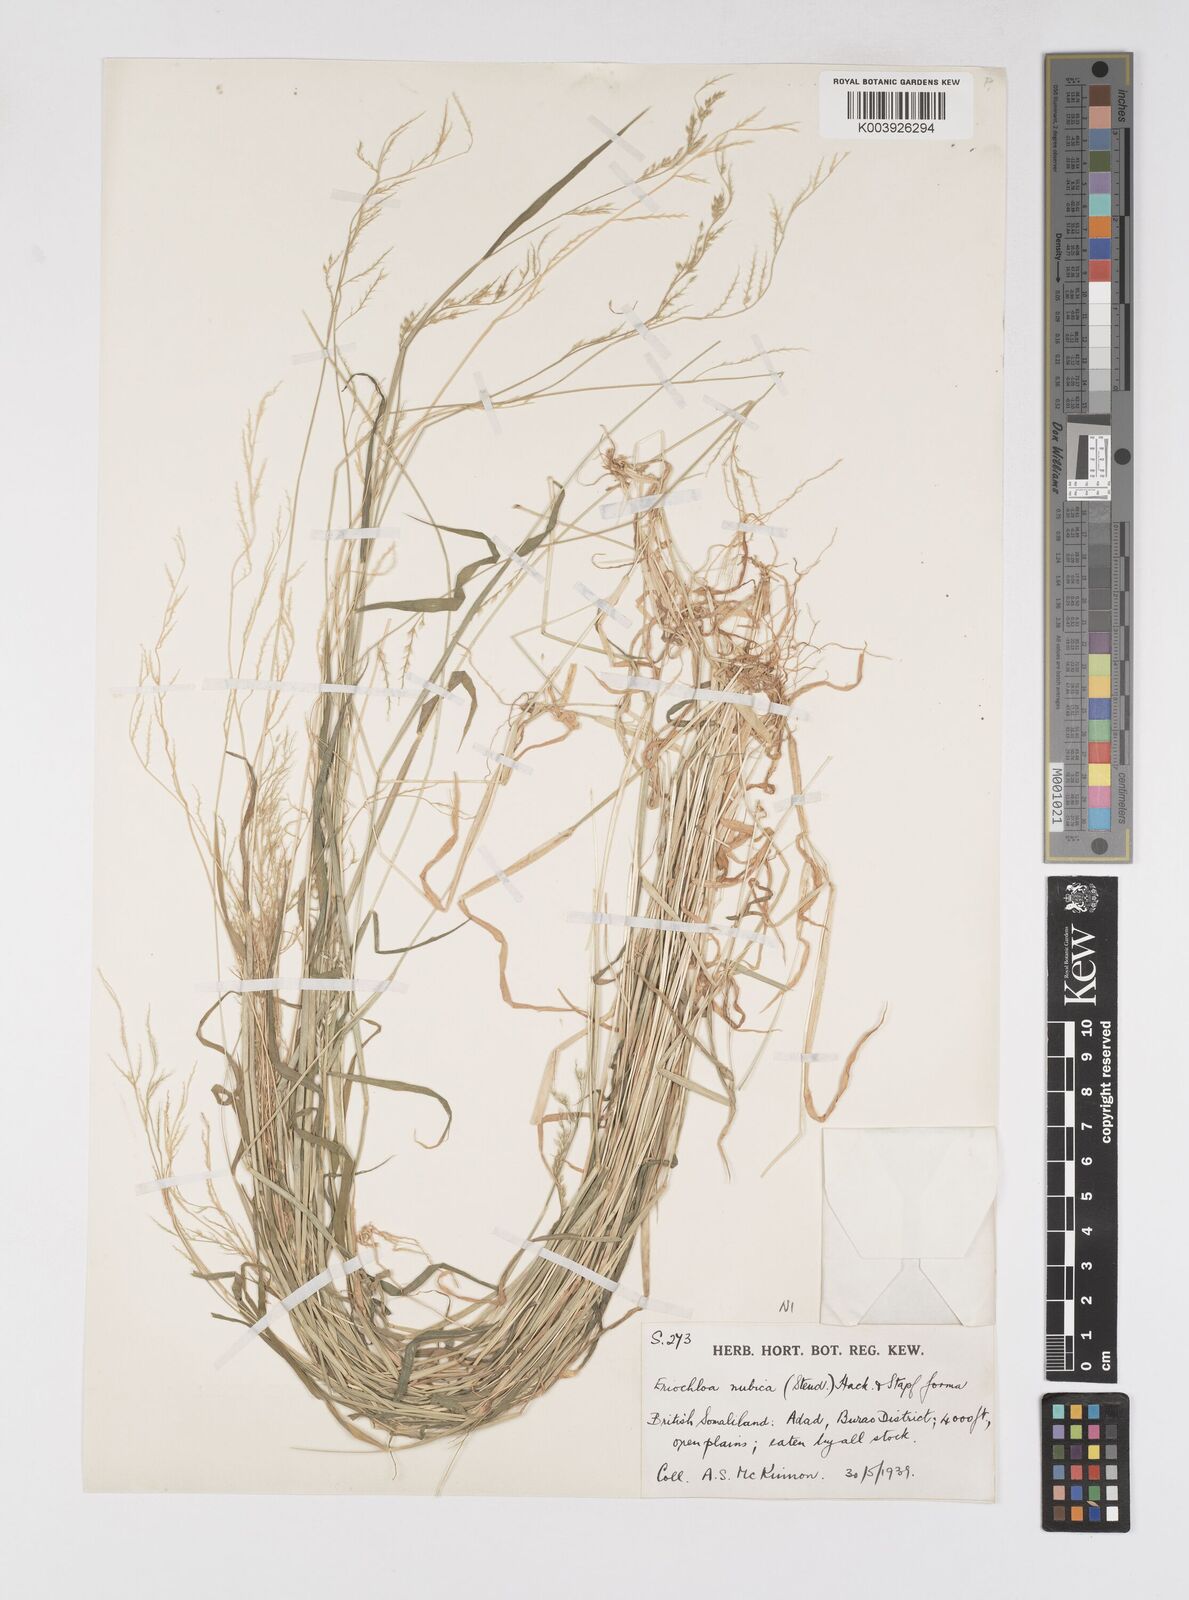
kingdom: Plantae
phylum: Tracheophyta
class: Liliopsida
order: Poales
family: Poaceae
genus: Eriochloa
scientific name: Eriochloa barbatus
